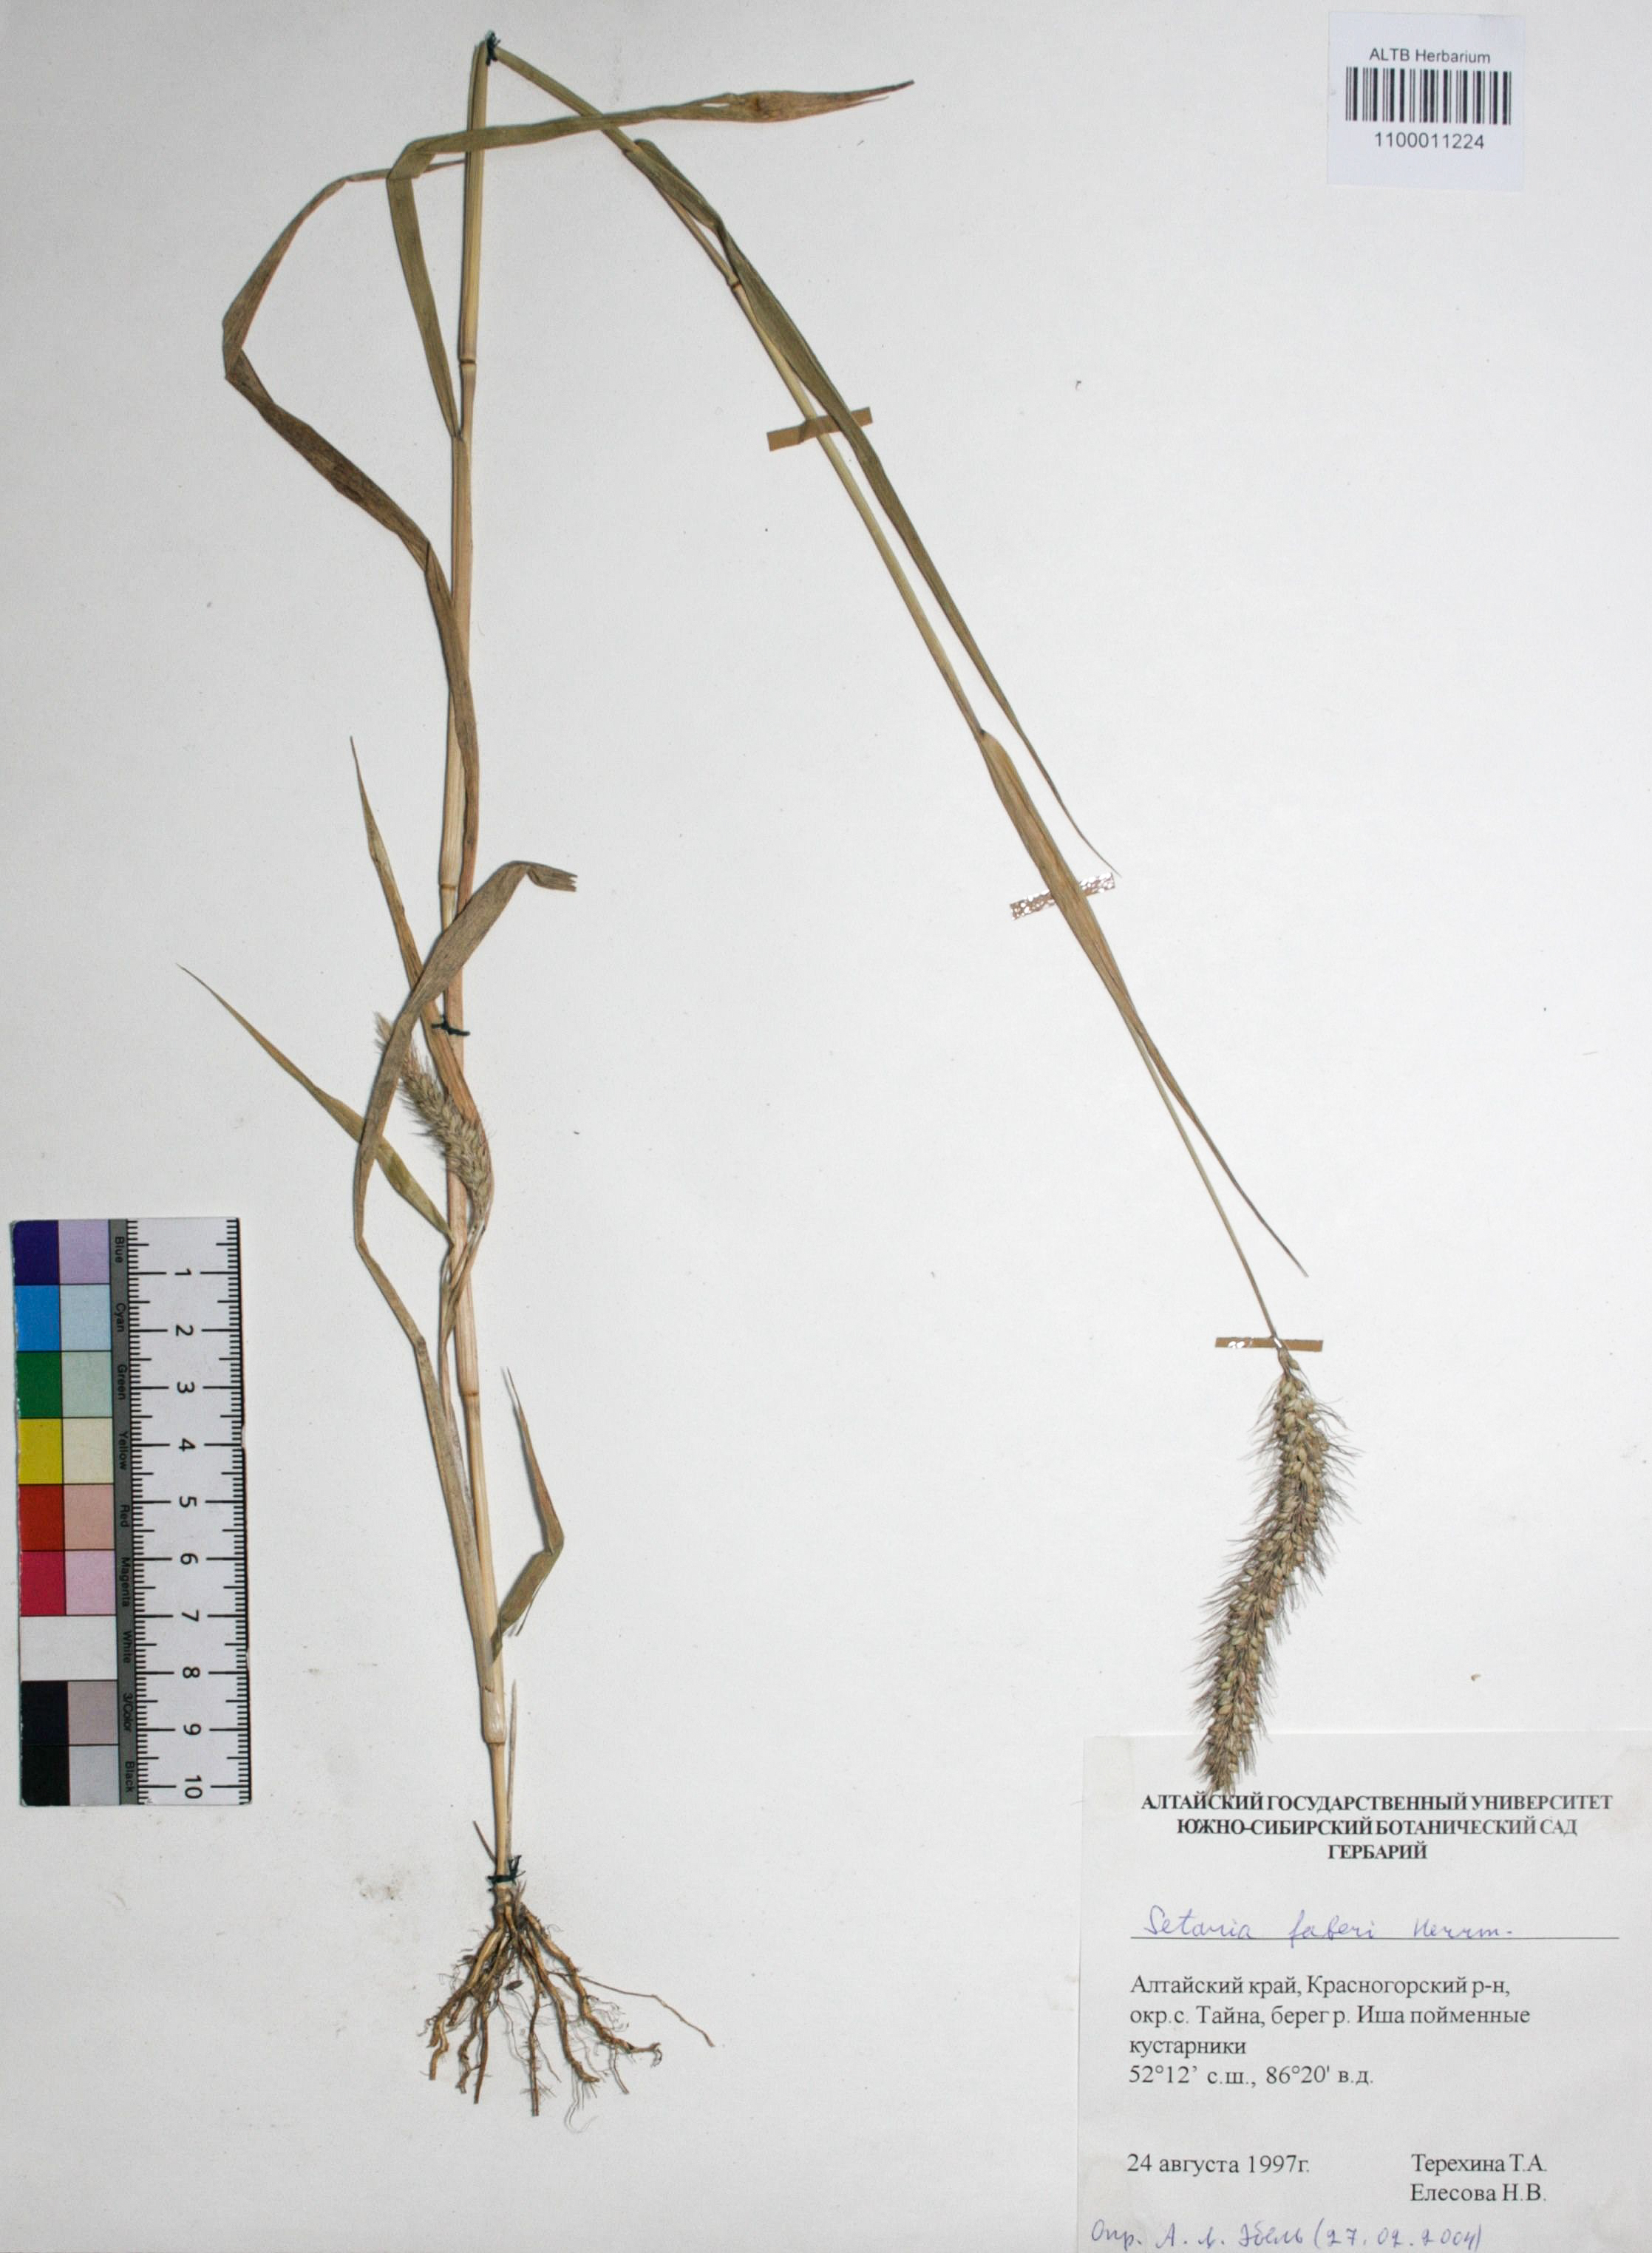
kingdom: Plantae
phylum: Tracheophyta
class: Liliopsida
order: Poales
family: Poaceae
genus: Setaria
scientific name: Setaria faberi
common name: Nodding bristle-grass
